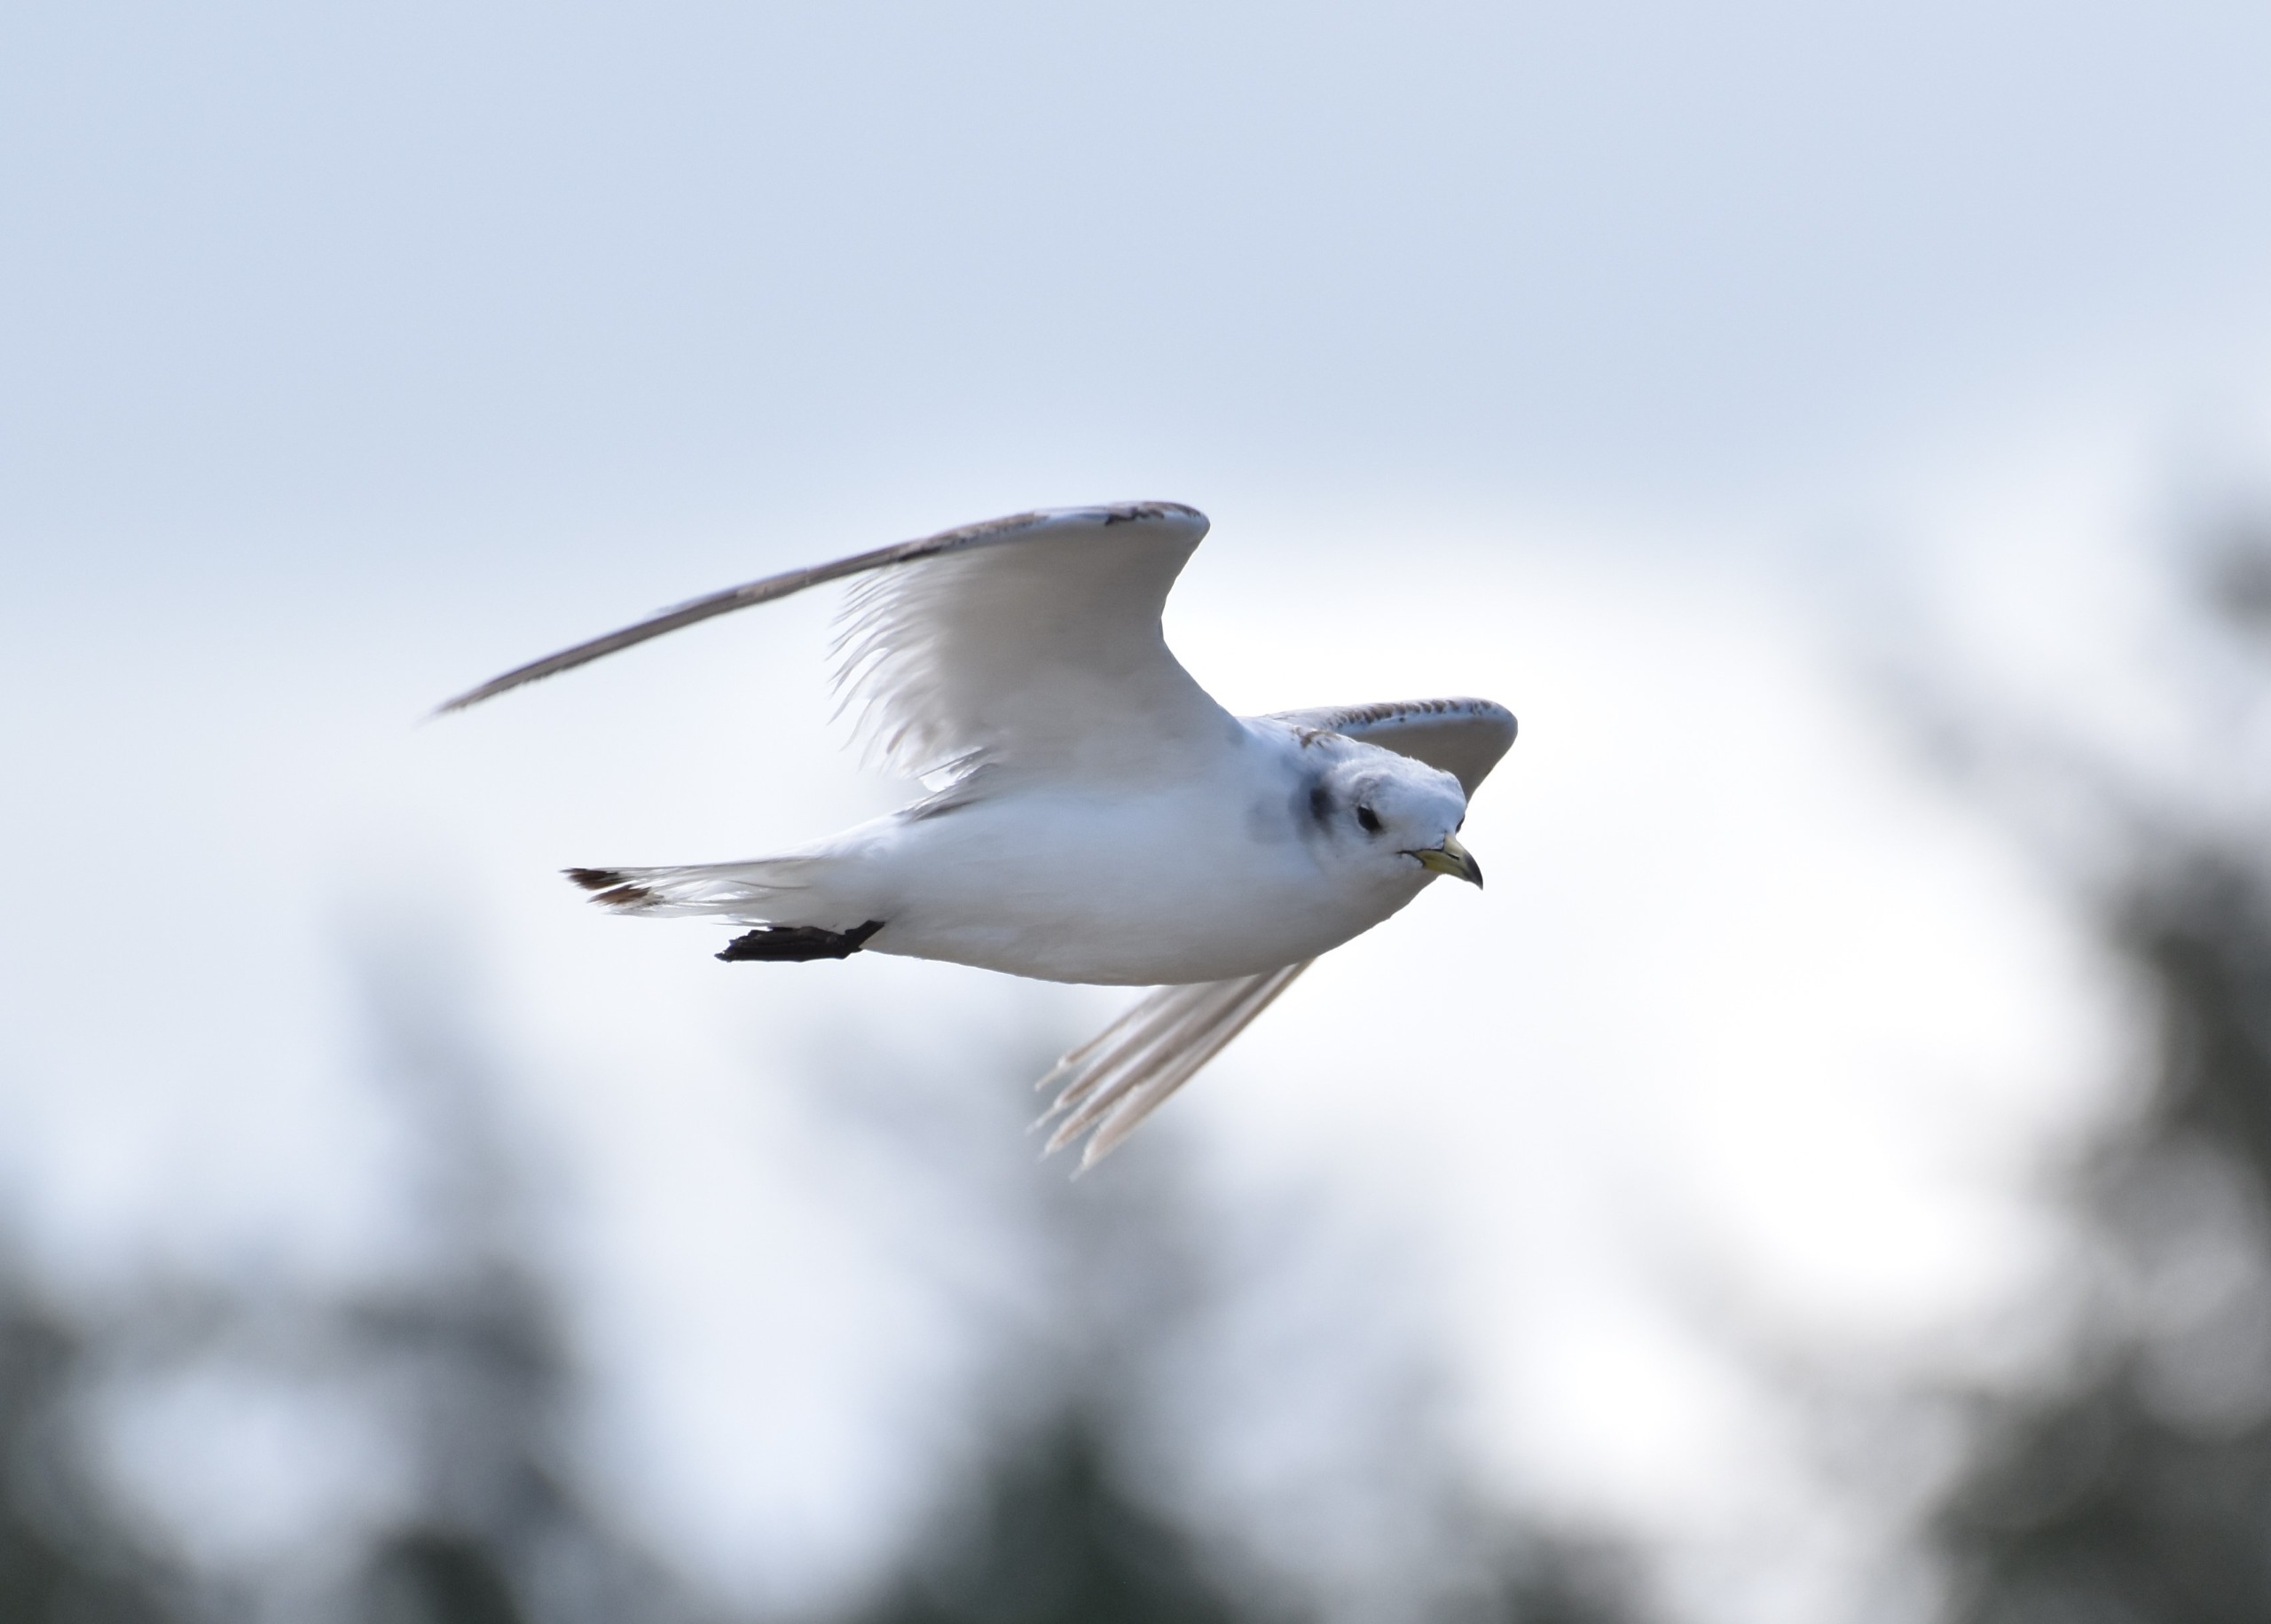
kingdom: Animalia
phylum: Chordata
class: Aves
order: Charadriiformes
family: Laridae
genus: Rissa
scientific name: Rissa tridactyla
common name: Ride
